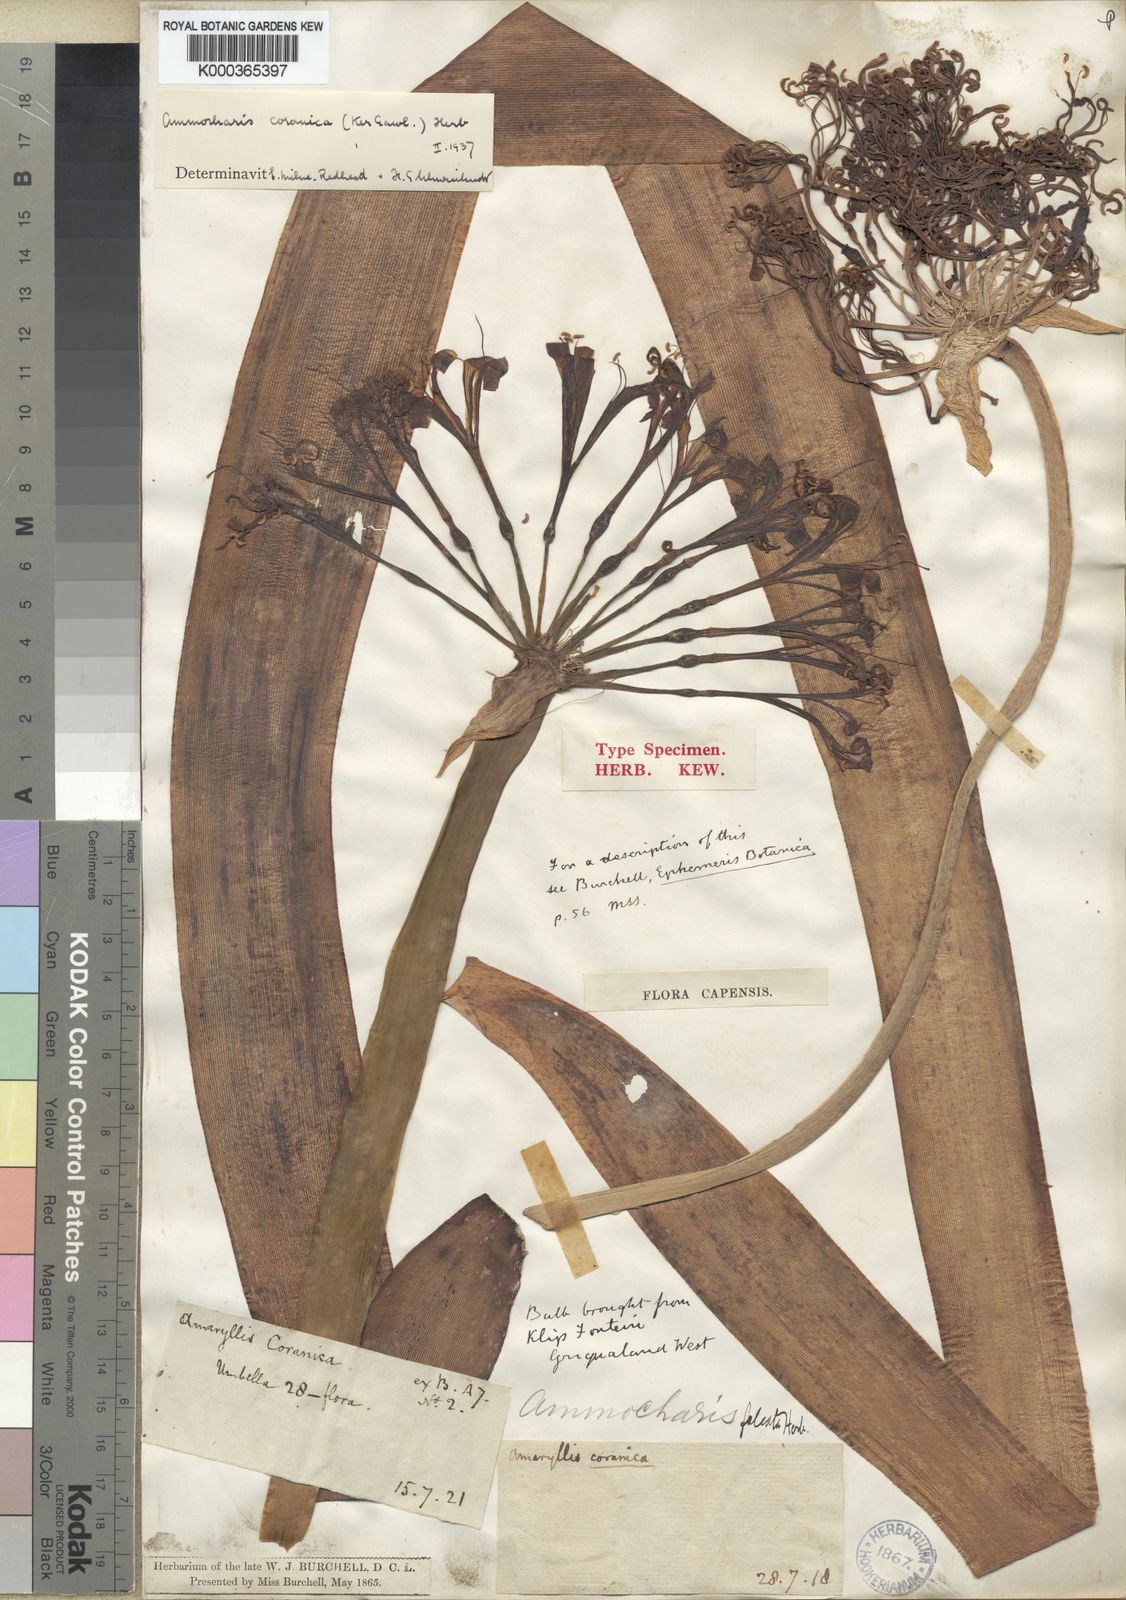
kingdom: Plantae
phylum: Tracheophyta
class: Liliopsida
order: Asparagales
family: Amaryllidaceae
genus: Ammocharis
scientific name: Ammocharis coranica
